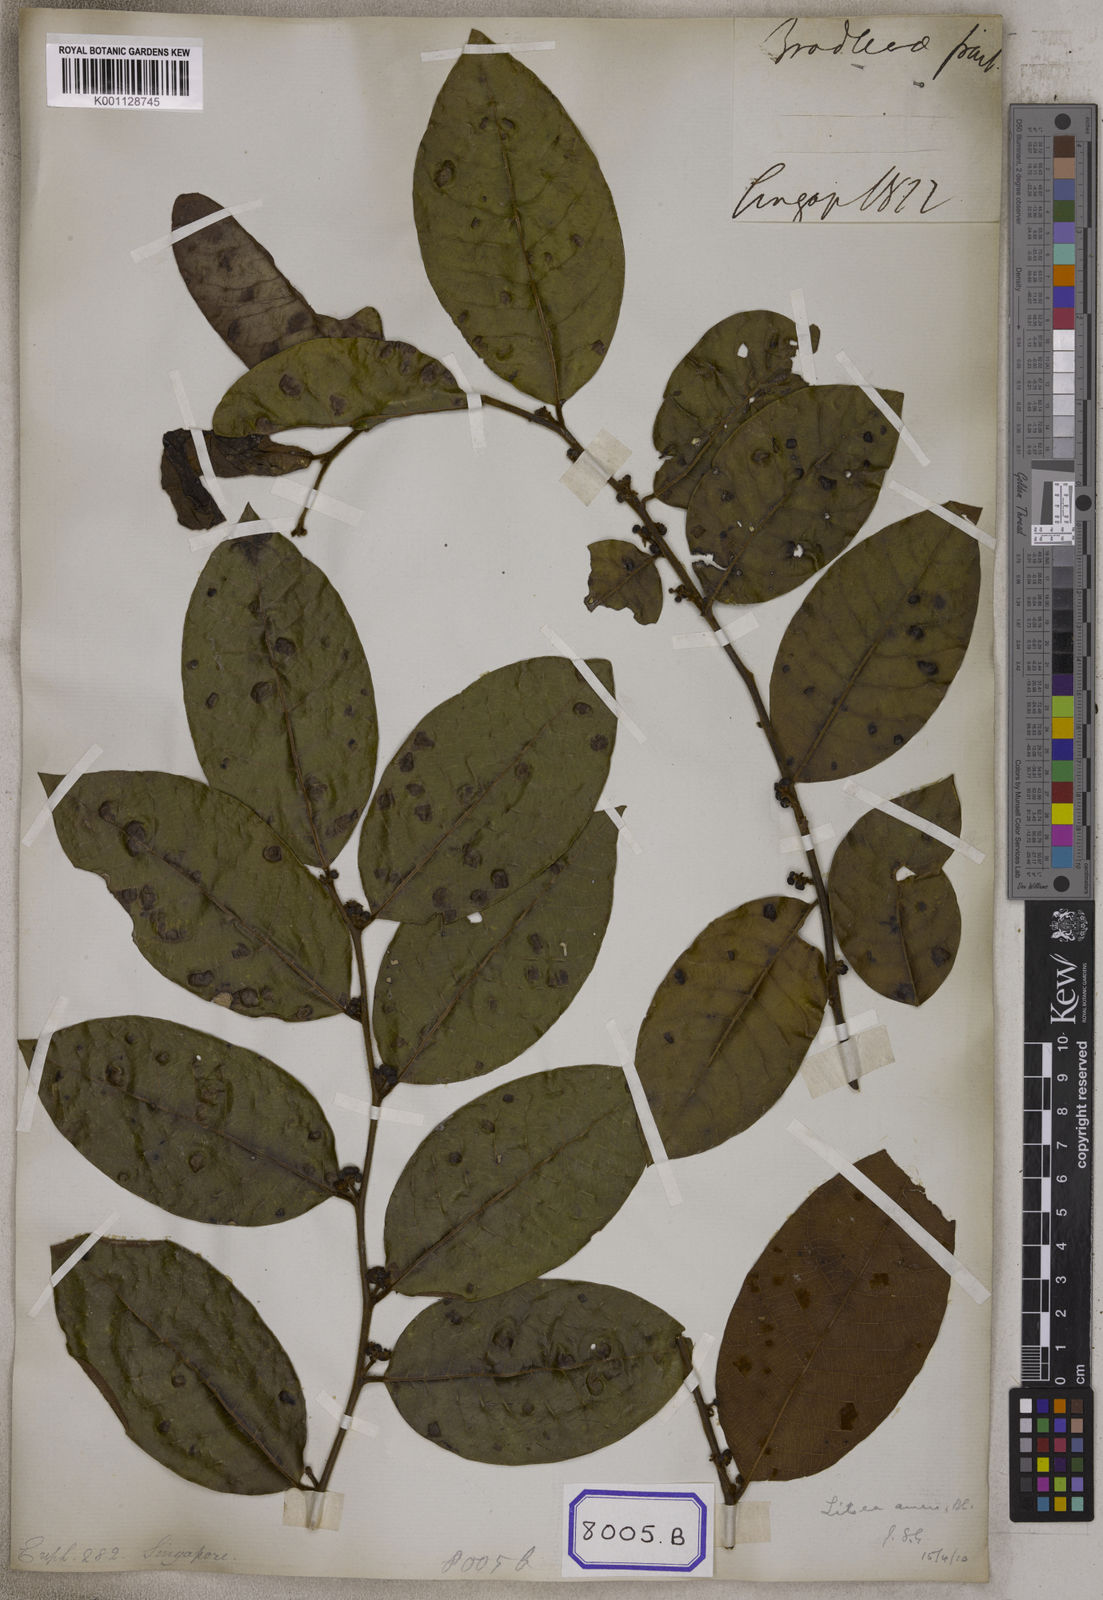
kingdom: Plantae
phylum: Tracheophyta
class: Magnoliopsida
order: Malpighiales
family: Euphorbiaceae
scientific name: Euphorbiaceae
